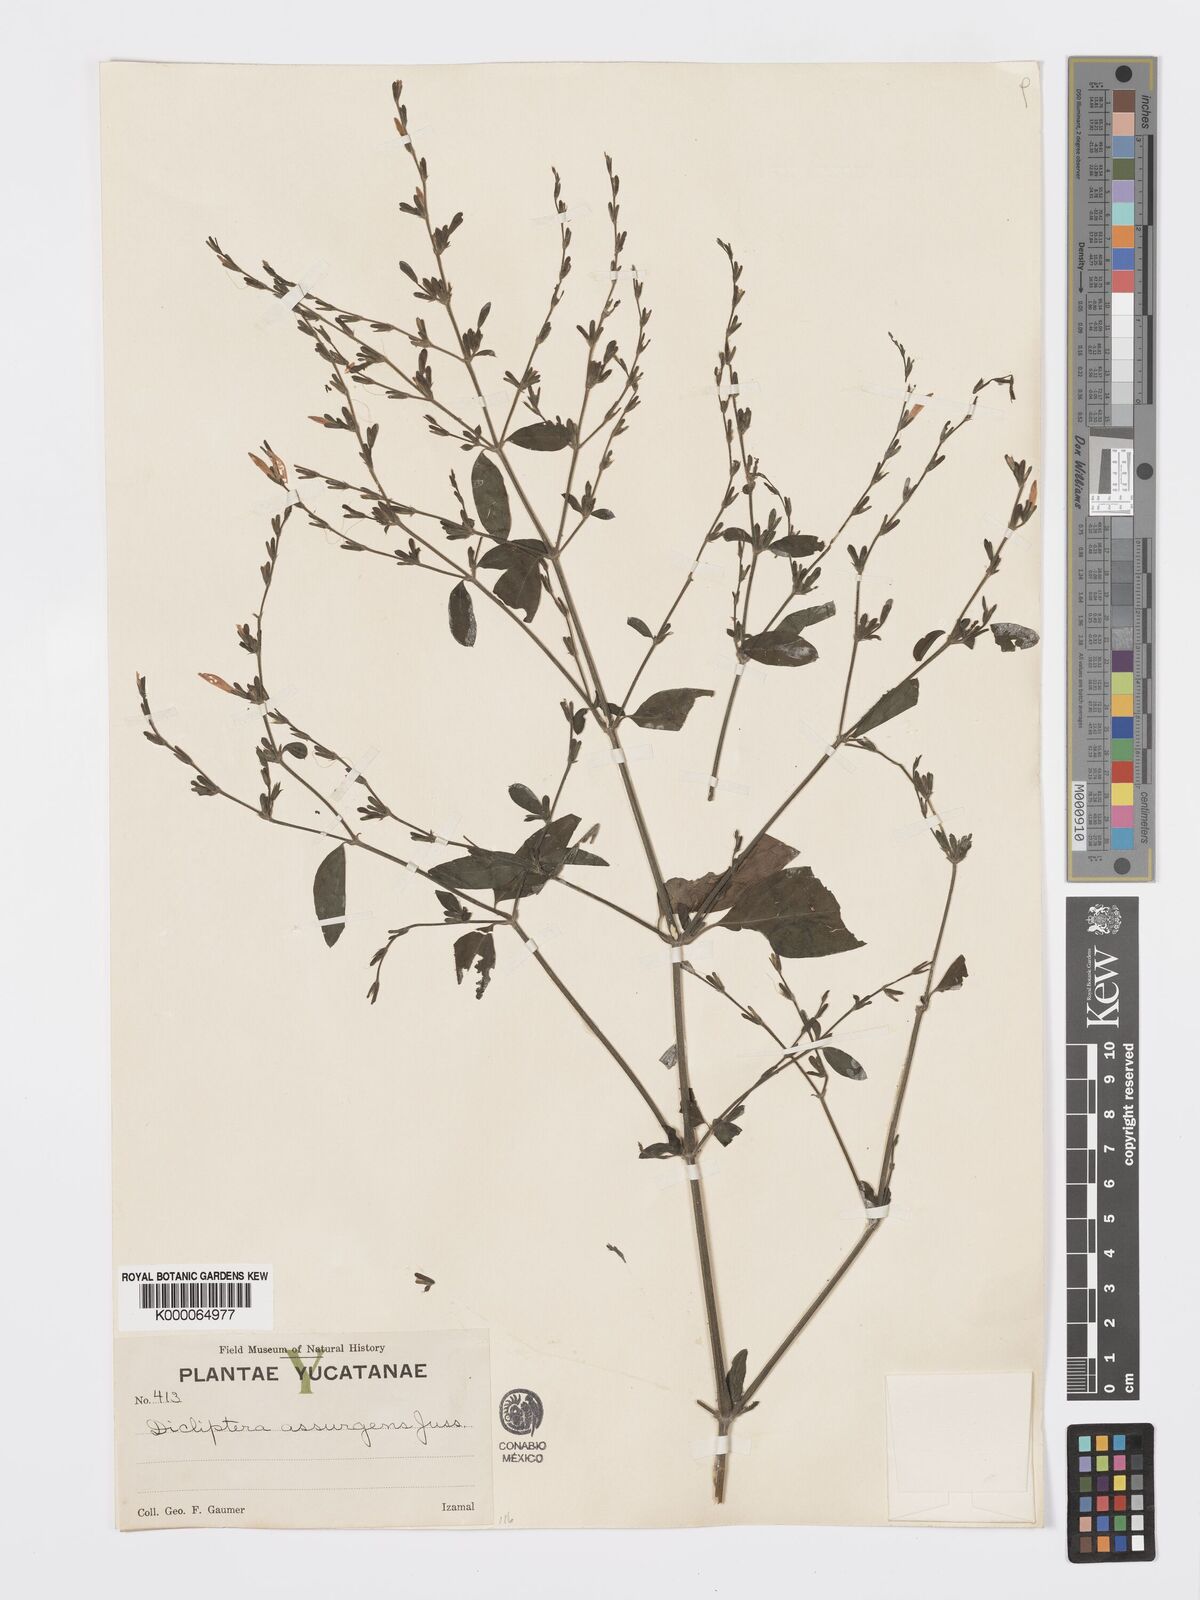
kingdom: Plantae
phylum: Tracheophyta
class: Magnoliopsida
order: Lamiales
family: Acanthaceae
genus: Dicliptera
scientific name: Dicliptera sexangularis
